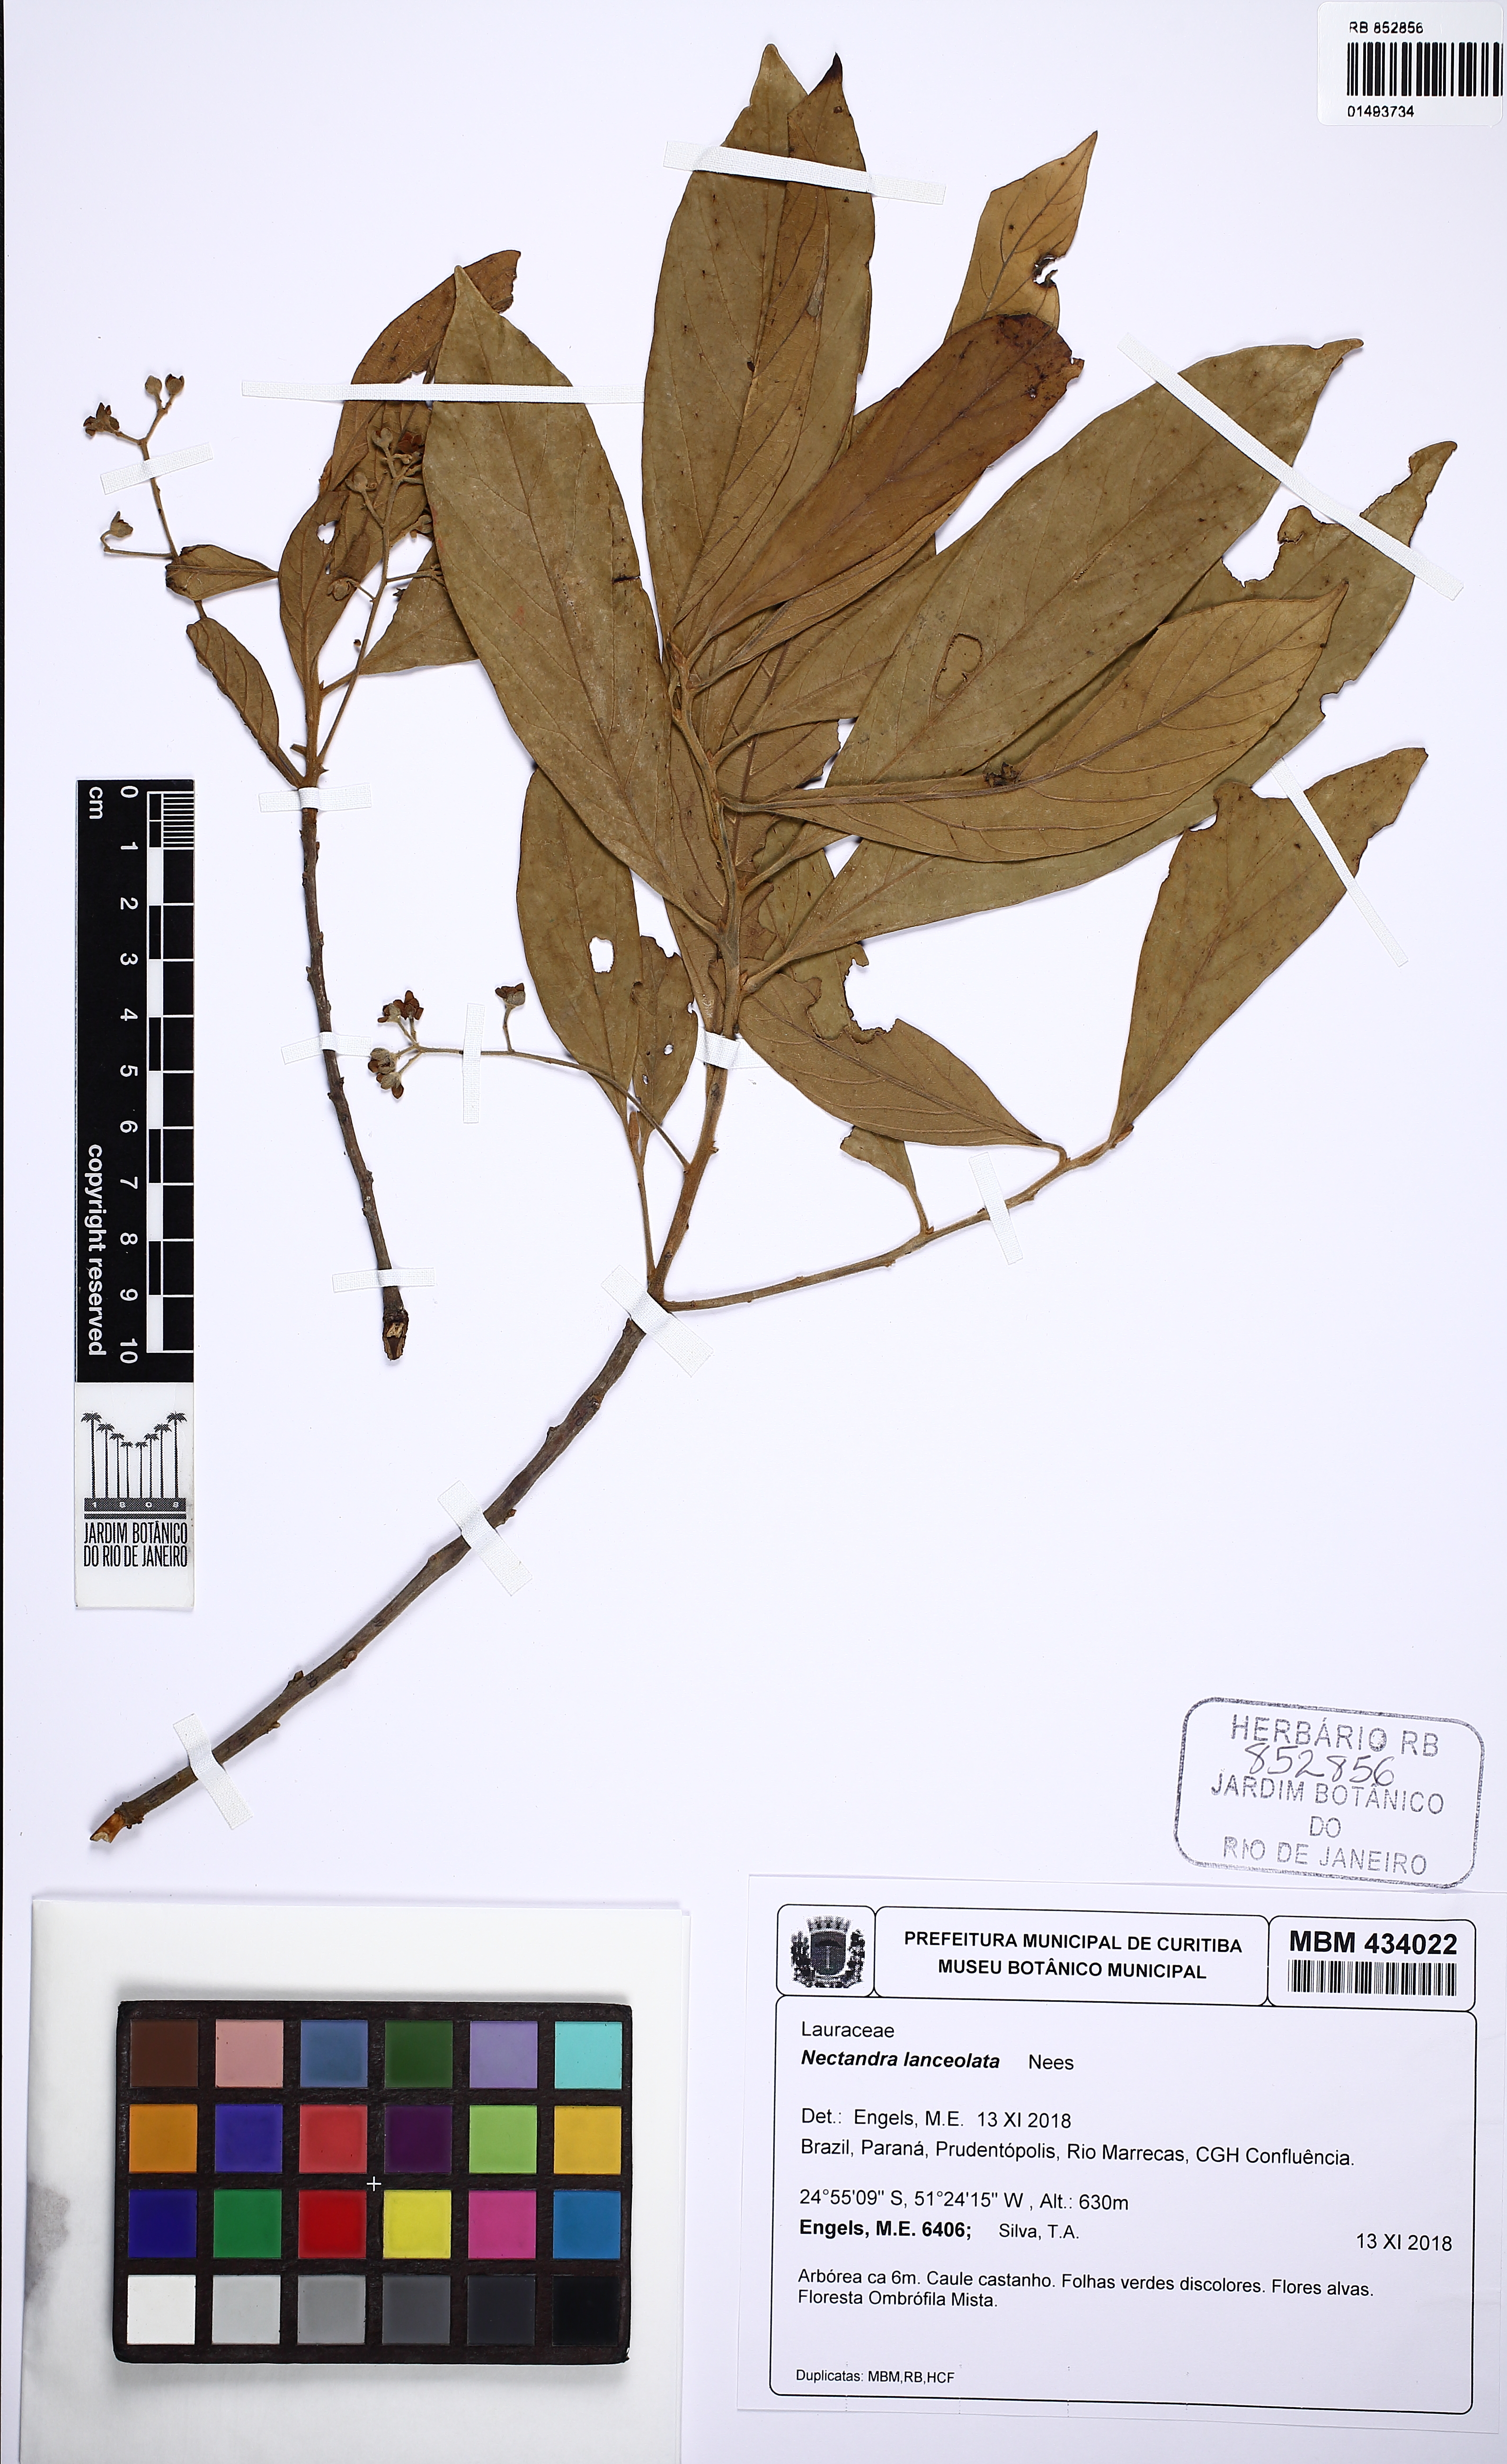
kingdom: Plantae
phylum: Tracheophyta
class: Magnoliopsida
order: Laurales
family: Lauraceae
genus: Nectandra
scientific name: Nectandra lanceolata
